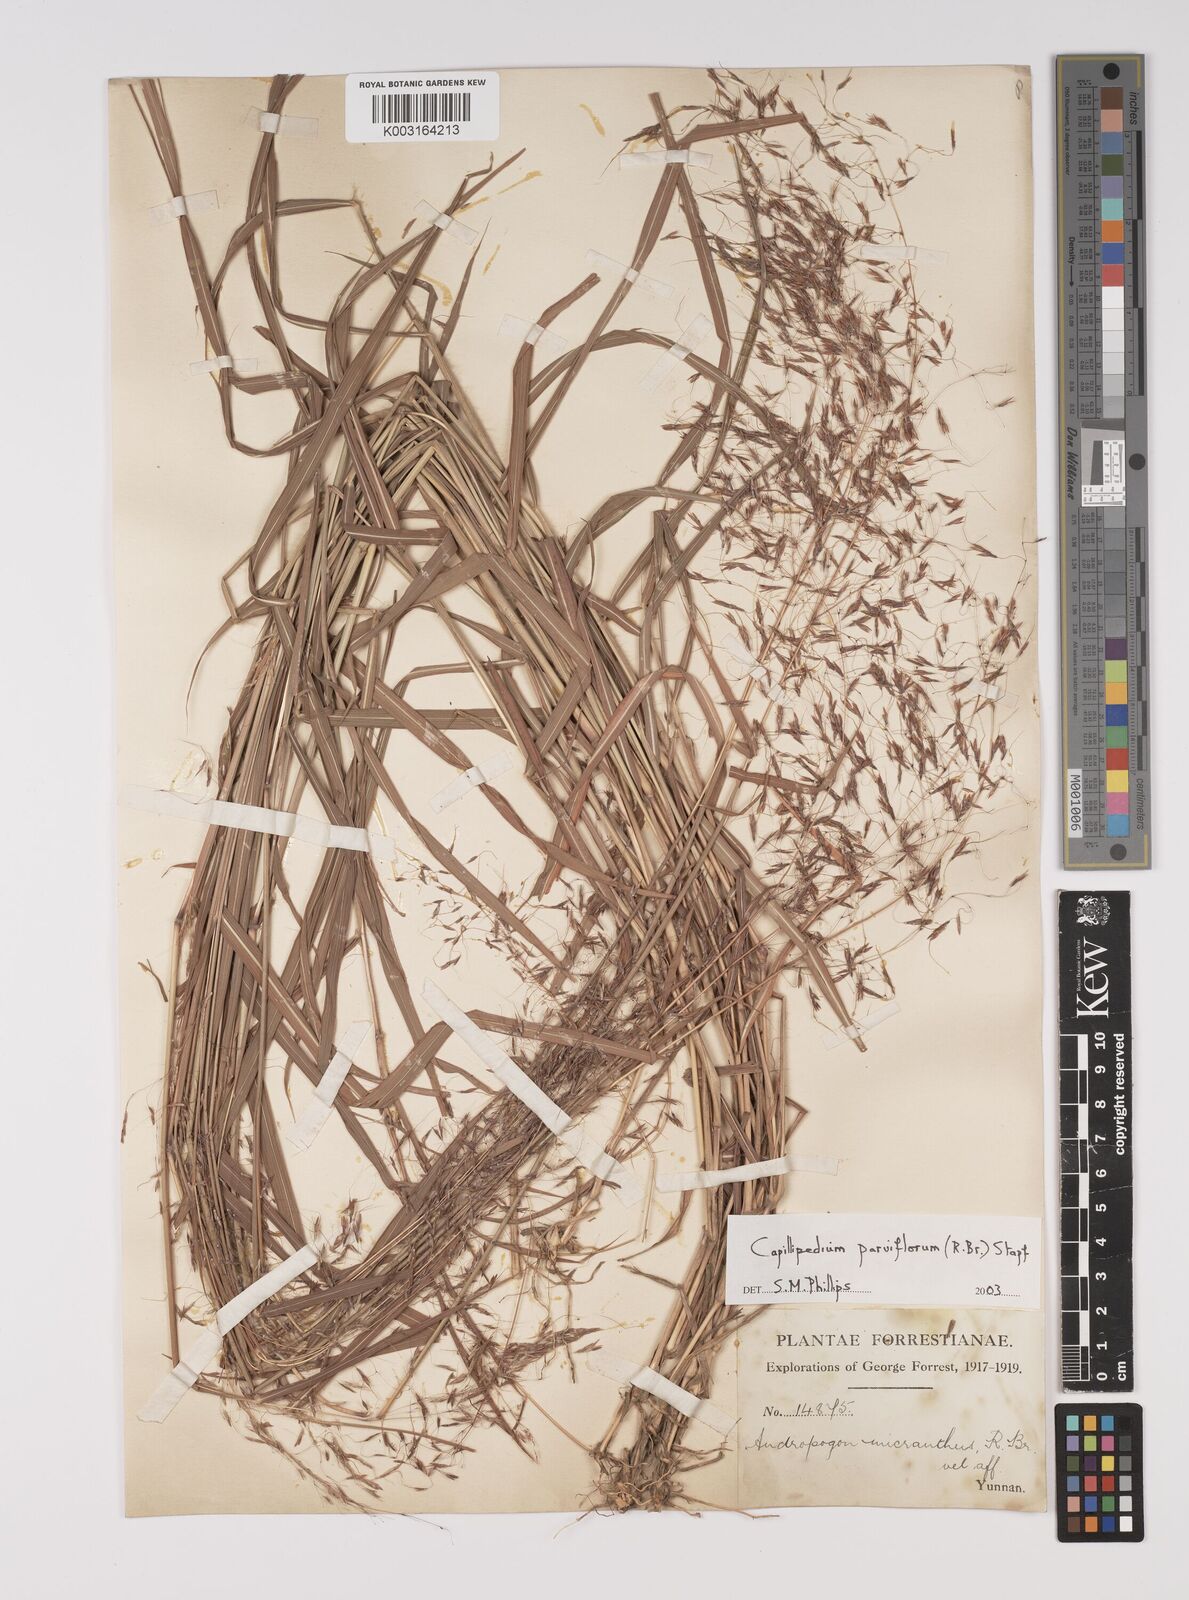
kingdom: Plantae
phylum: Tracheophyta
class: Liliopsida
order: Poales
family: Poaceae
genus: Capillipedium
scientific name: Capillipedium parviflorum
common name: Golden-beard
